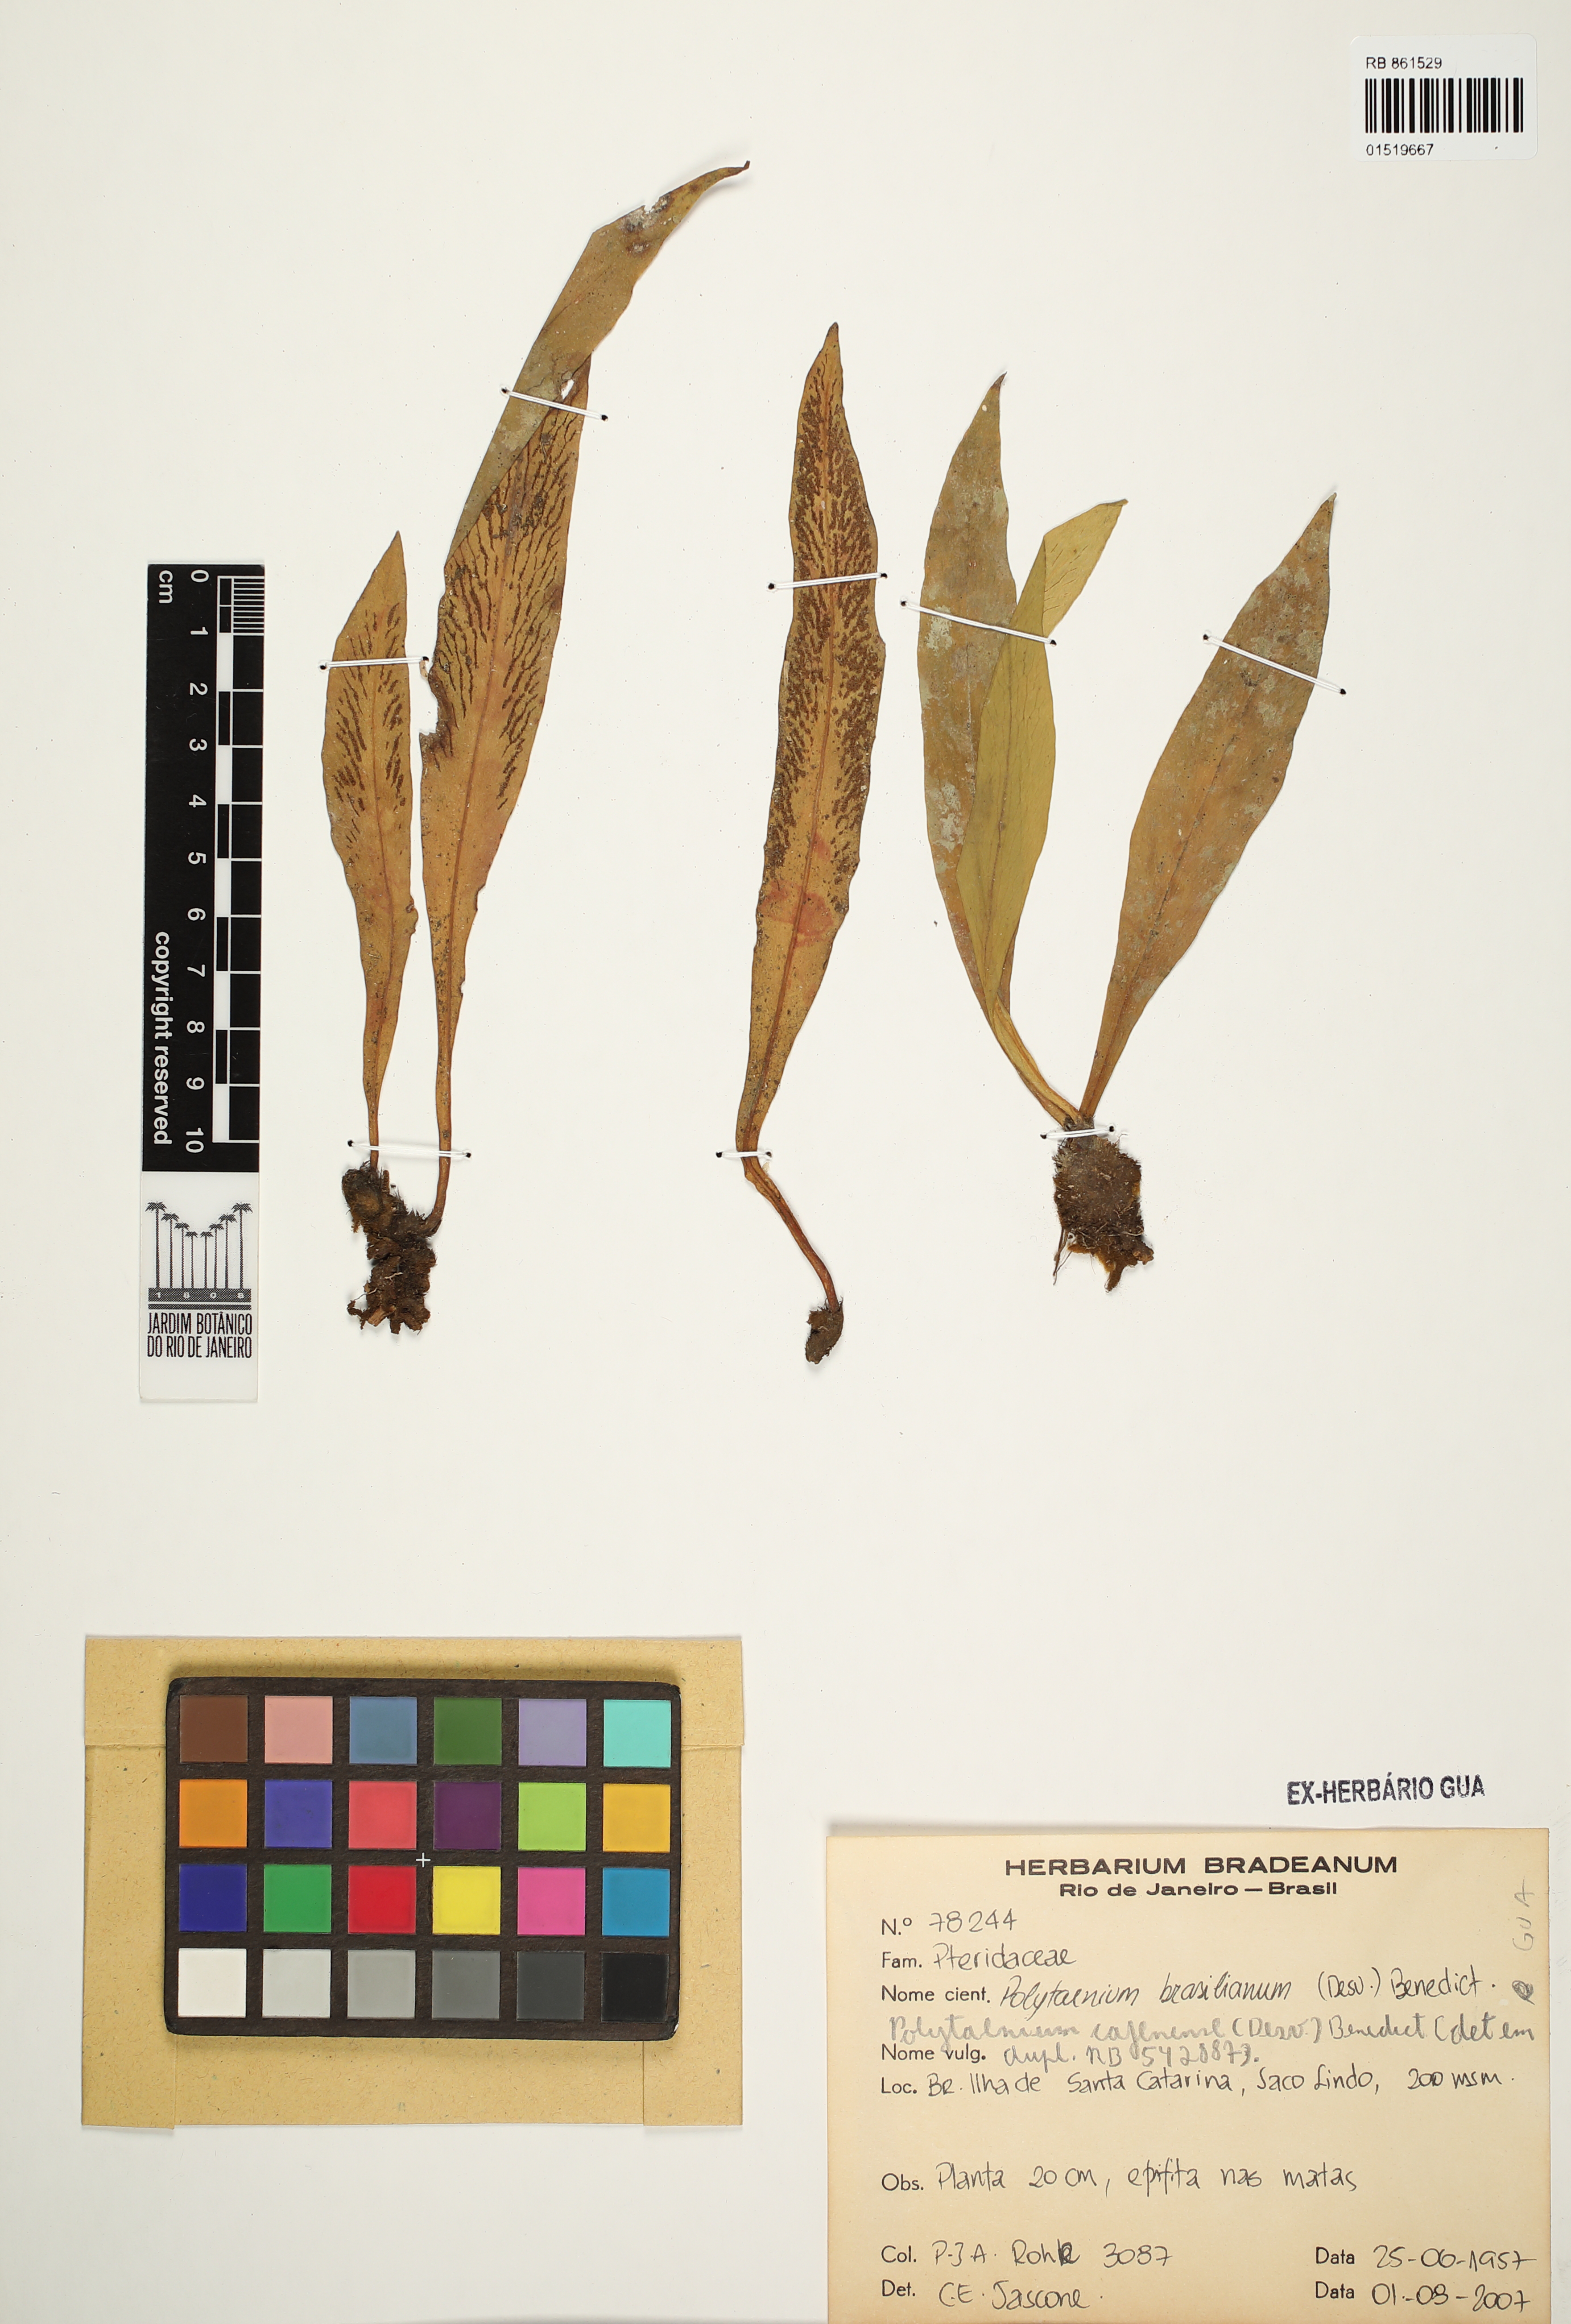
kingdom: Plantae
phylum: Tracheophyta
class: Polypodiopsida
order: Polypodiales
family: Pteridaceae
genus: Polytaenium
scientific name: Polytaenium cajenense
